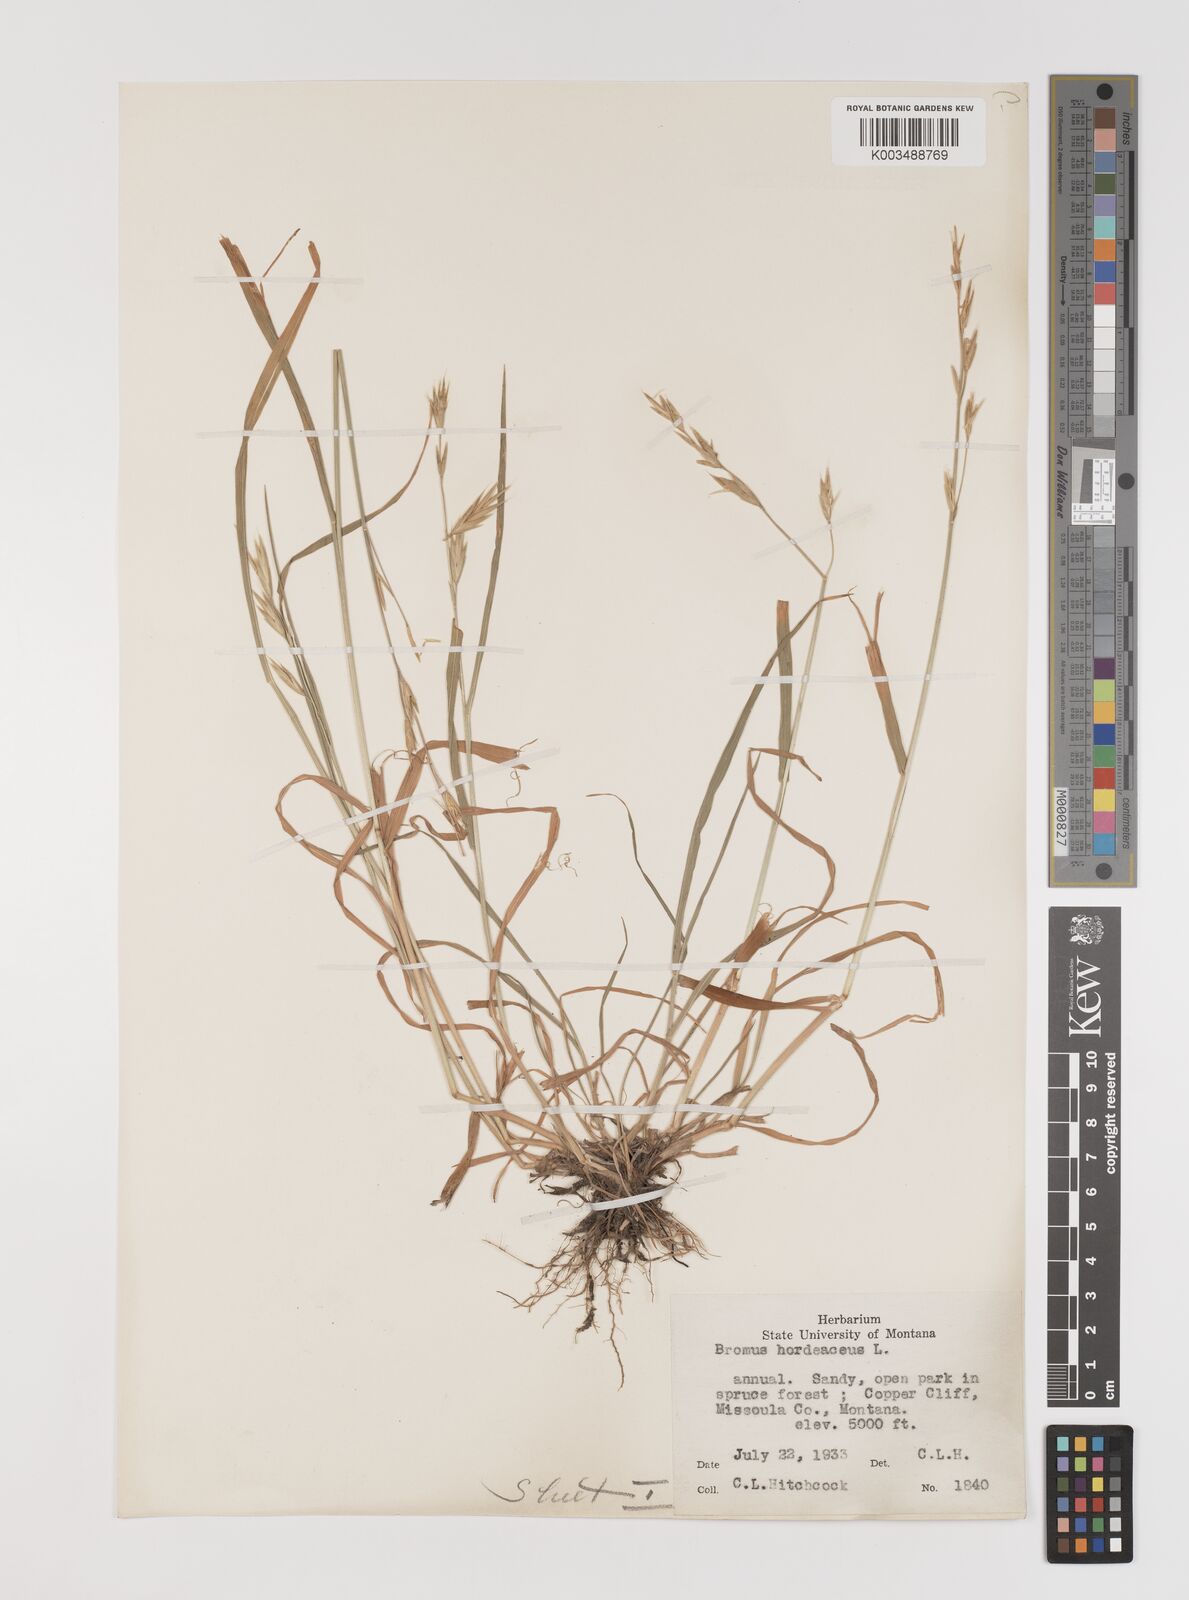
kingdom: Plantae
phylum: Tracheophyta
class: Liliopsida
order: Poales
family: Poaceae
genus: Bromus
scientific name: Bromus
